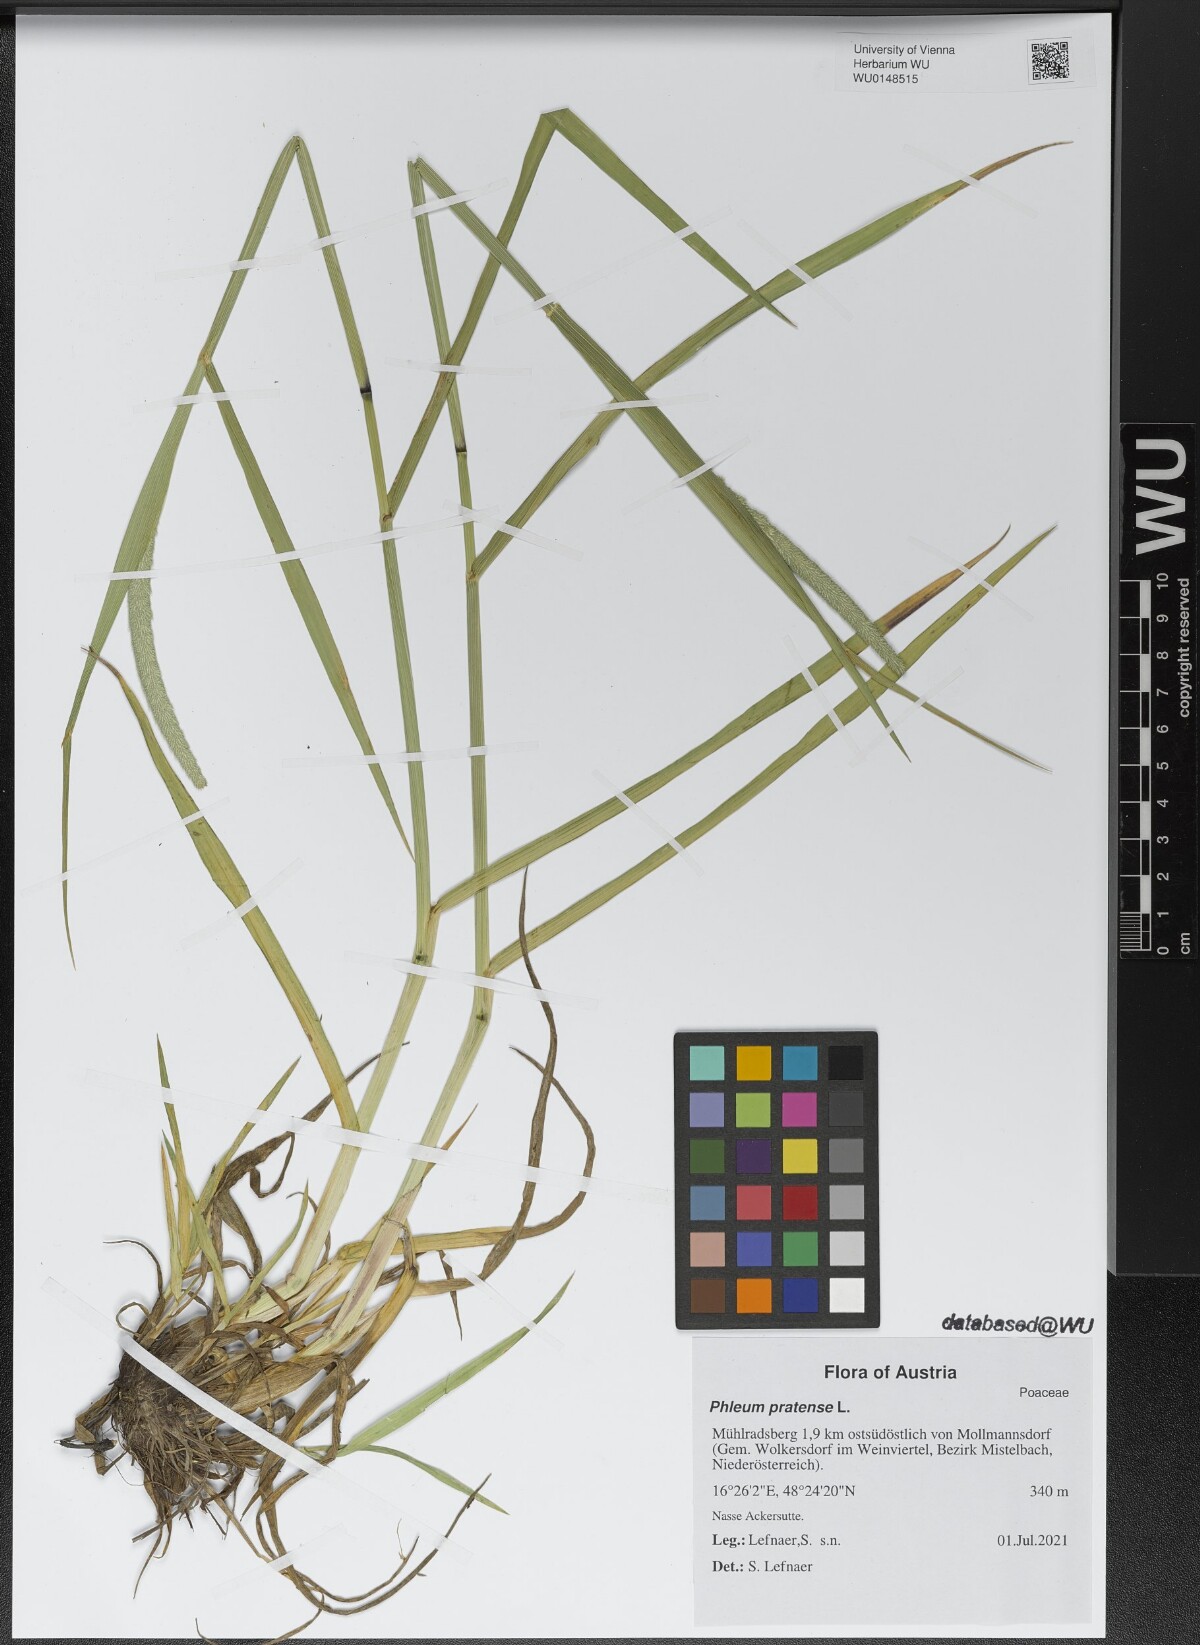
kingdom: Plantae
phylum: Tracheophyta
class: Liliopsida
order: Poales
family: Poaceae
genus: Phleum
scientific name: Phleum pratense
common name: Timothy grass
